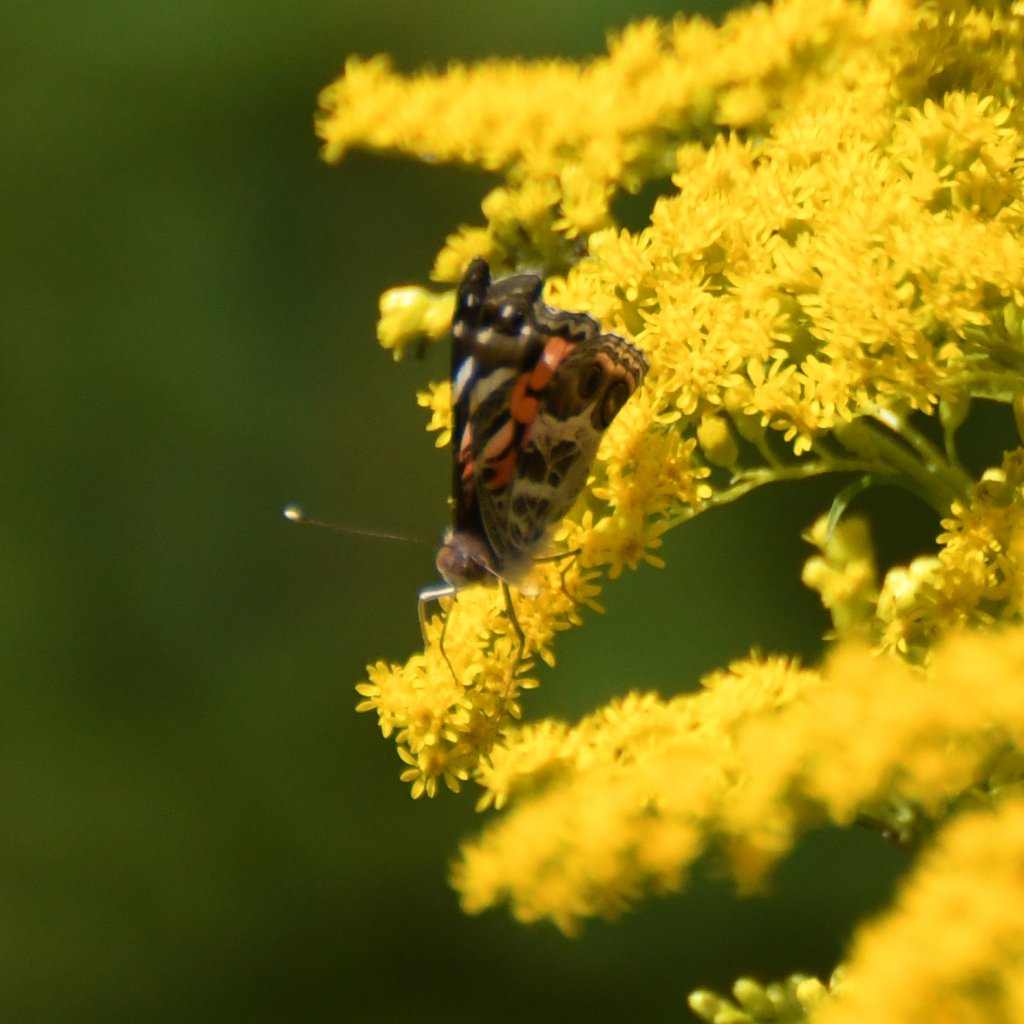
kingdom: Animalia
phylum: Arthropoda
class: Insecta
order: Lepidoptera
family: Nymphalidae
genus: Vanessa
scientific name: Vanessa virginiensis
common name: American Lady
